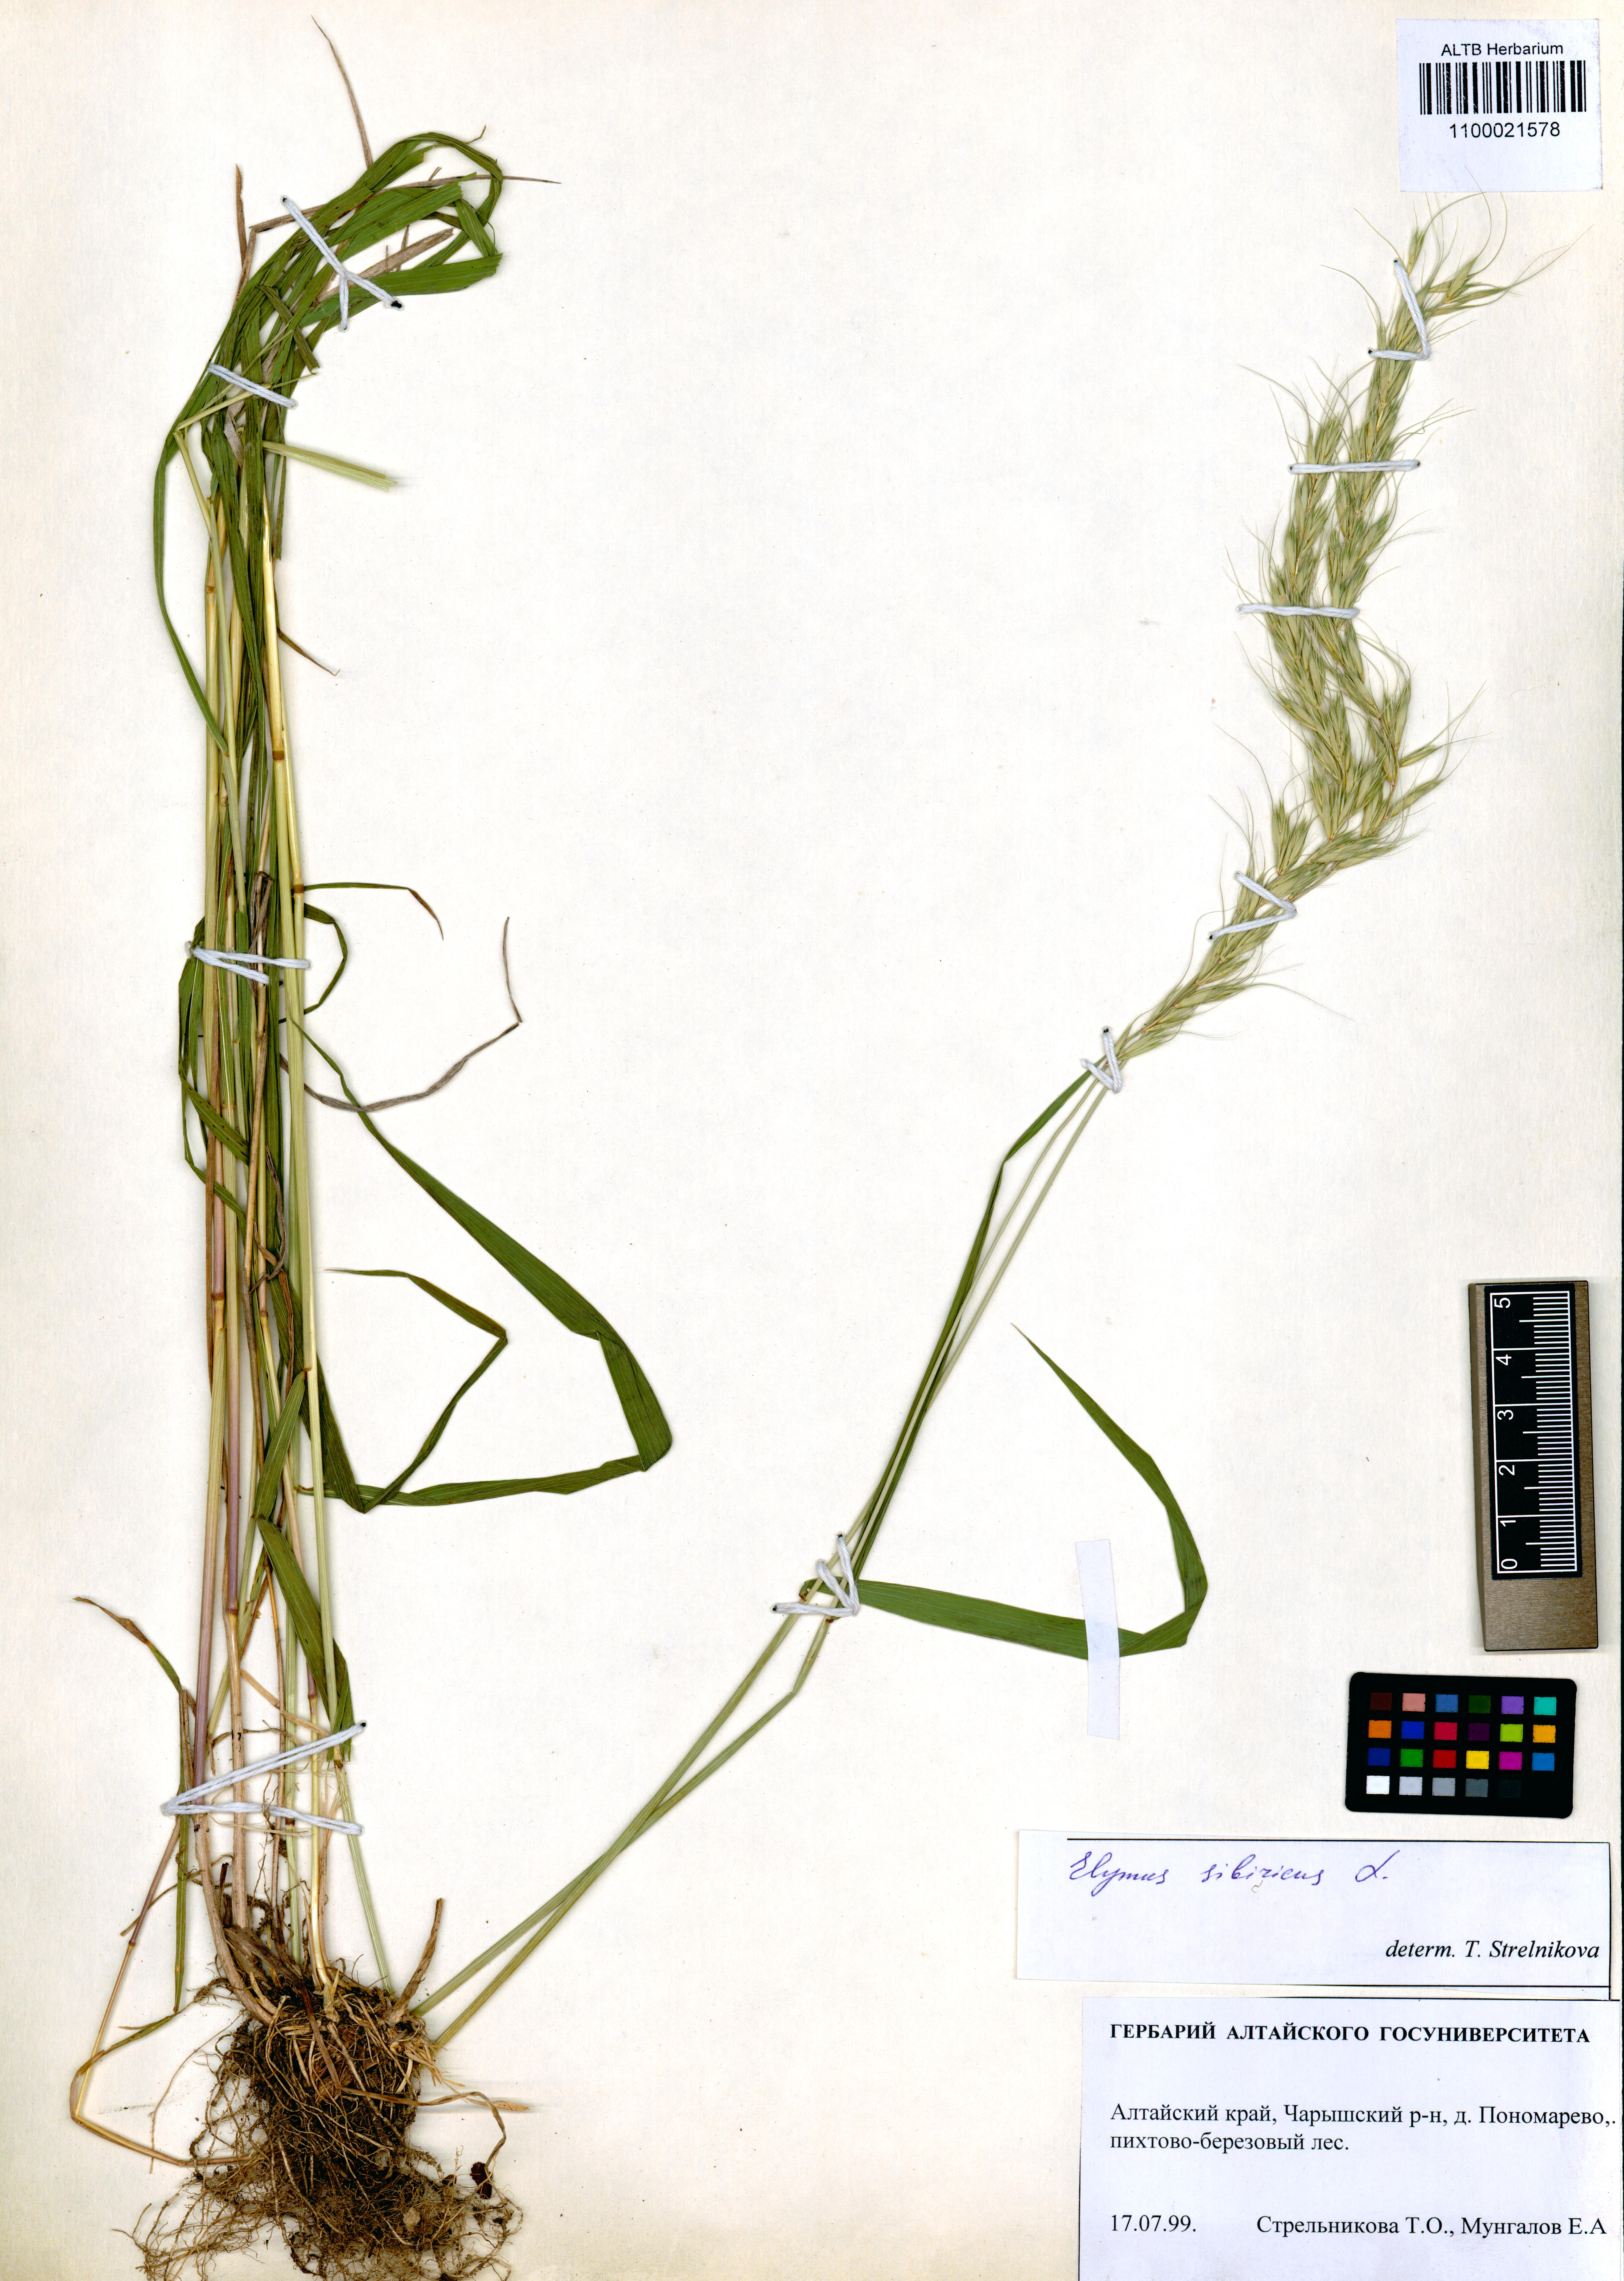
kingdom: Plantae
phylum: Tracheophyta
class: Liliopsida
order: Poales
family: Poaceae
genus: Elymus
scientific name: Elymus sibiricus
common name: Siberian wildrye
